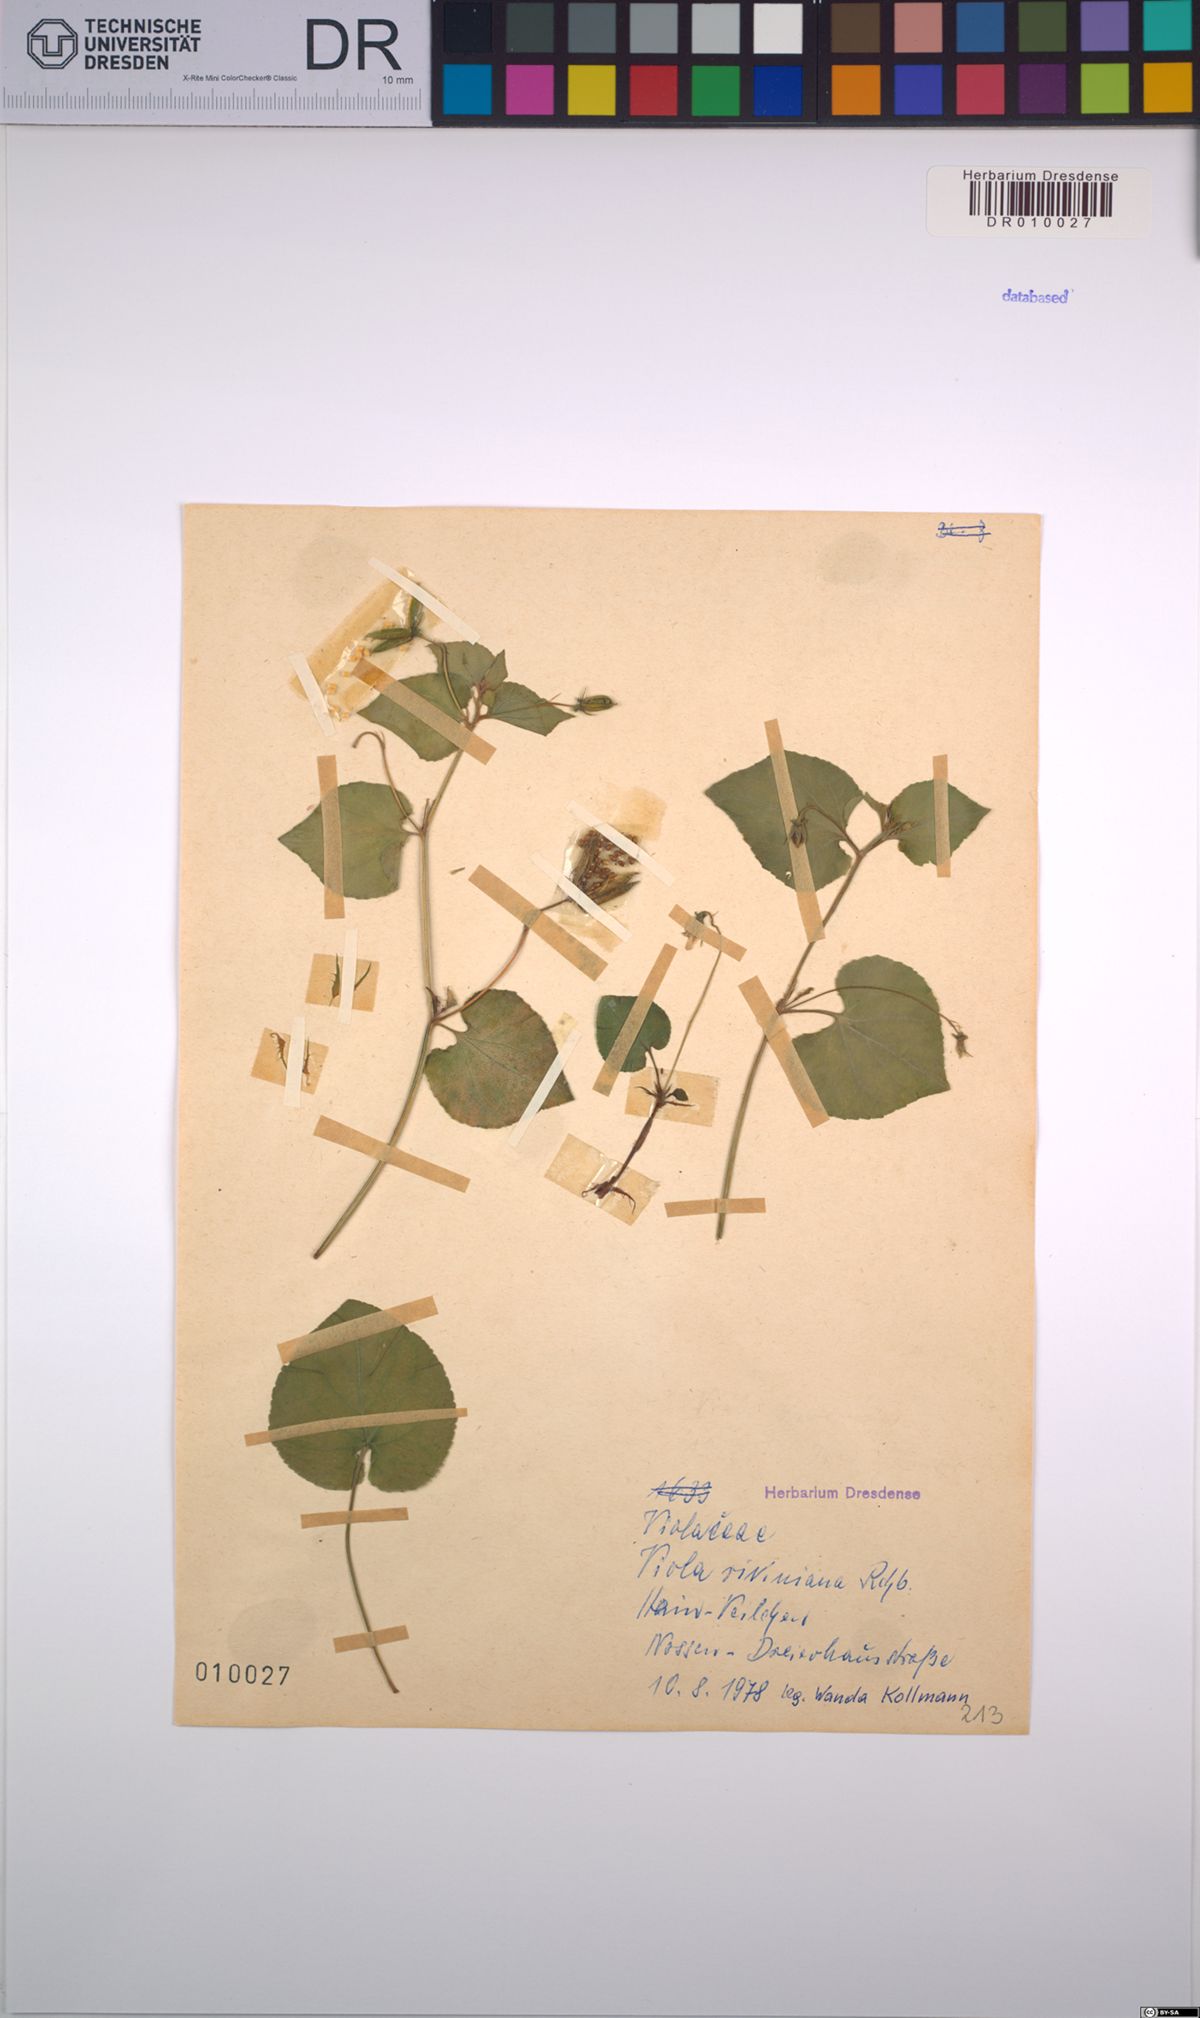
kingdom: Plantae
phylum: Tracheophyta
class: Magnoliopsida
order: Malpighiales
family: Violaceae
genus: Viola
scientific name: Viola riviniana
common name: Common dog-violet
